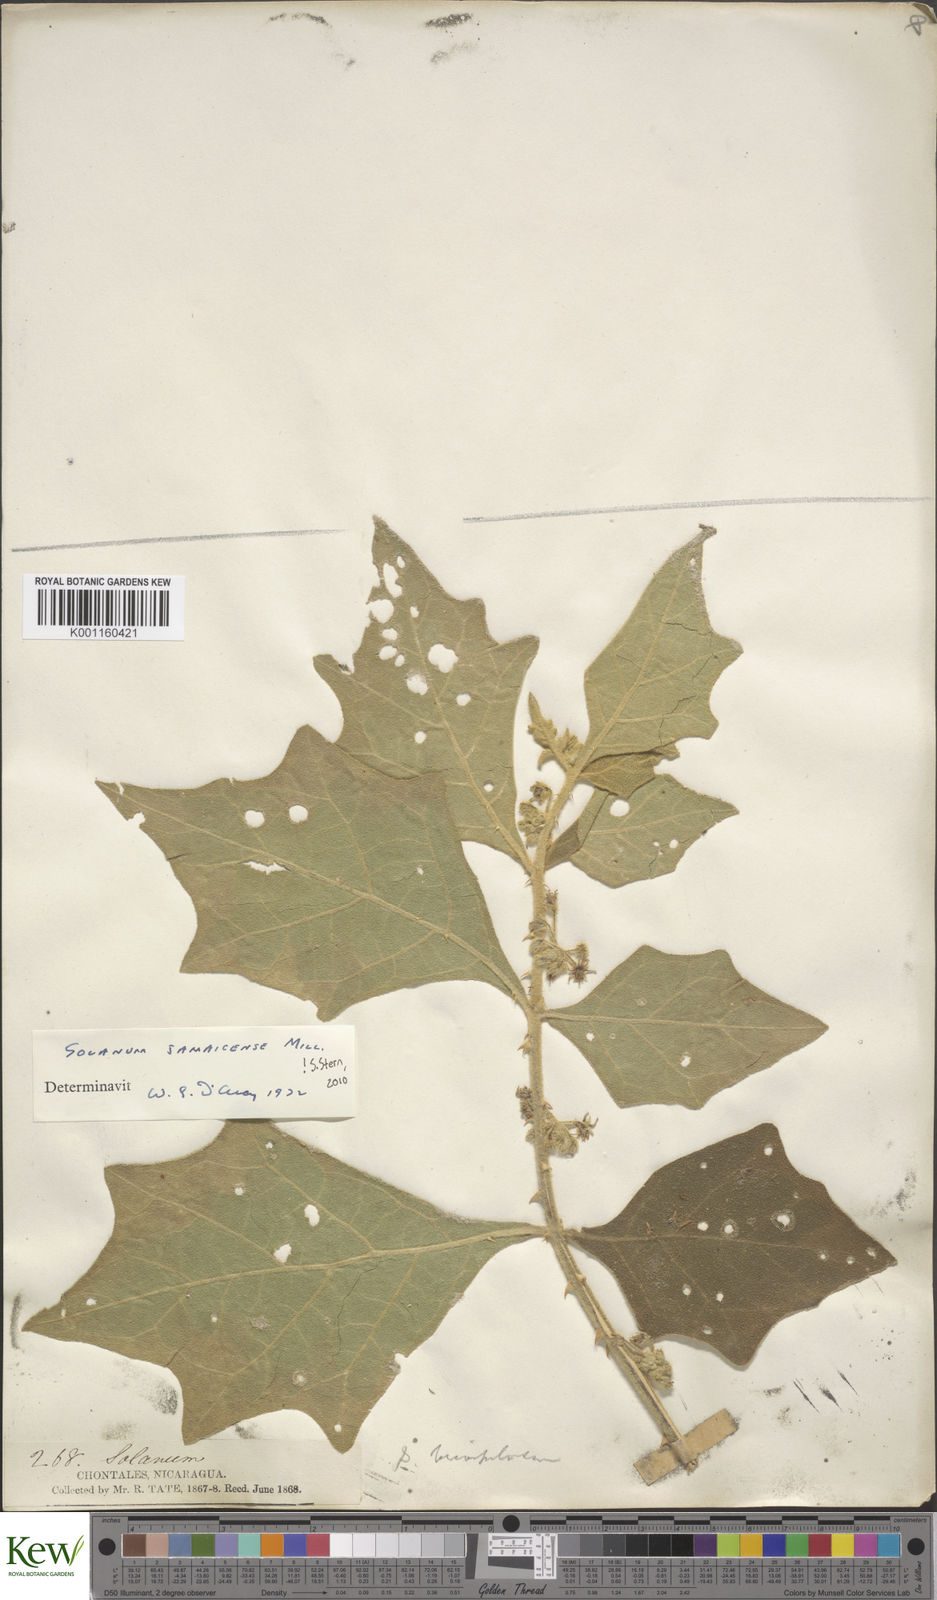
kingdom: Plantae
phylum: Tracheophyta
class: Magnoliopsida
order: Solanales
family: Solanaceae
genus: Solanum
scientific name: Solanum jamaicense
